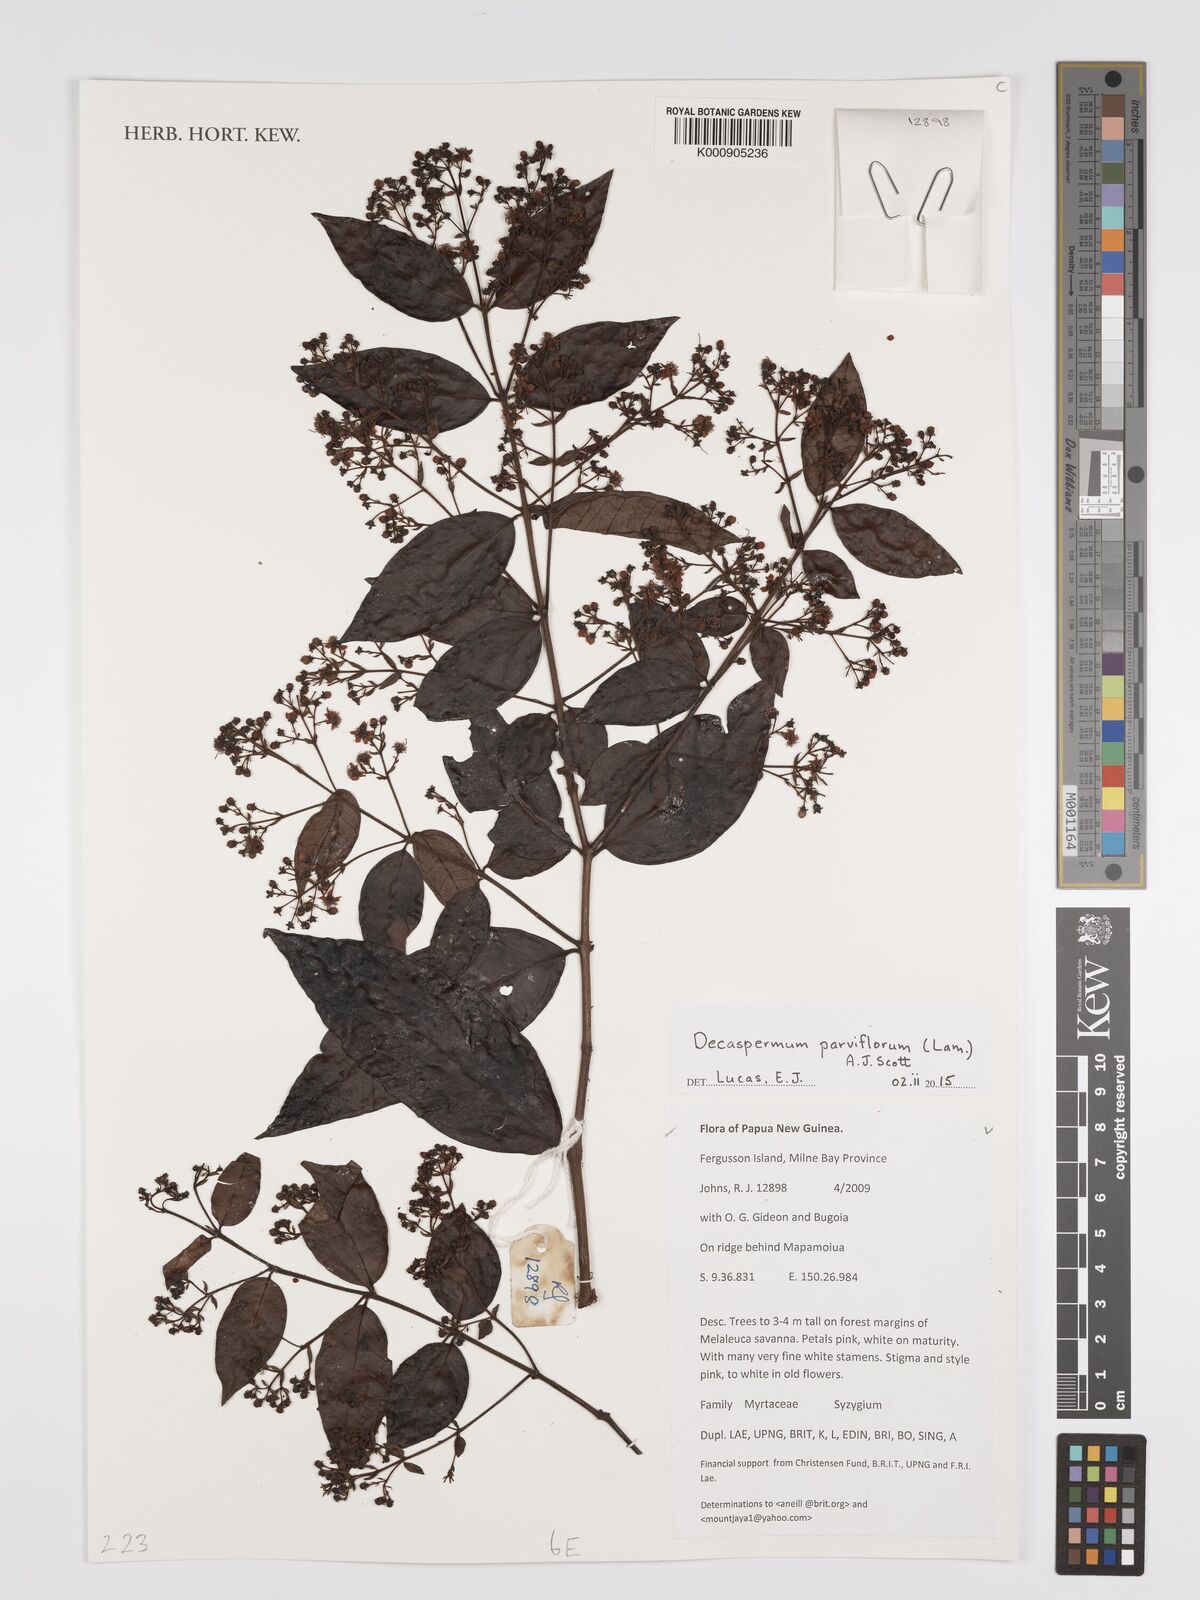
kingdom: Plantae
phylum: Tracheophyta
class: Magnoliopsida
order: Myrtales
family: Myrtaceae
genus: Decaspermum
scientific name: Decaspermum parviflorum
